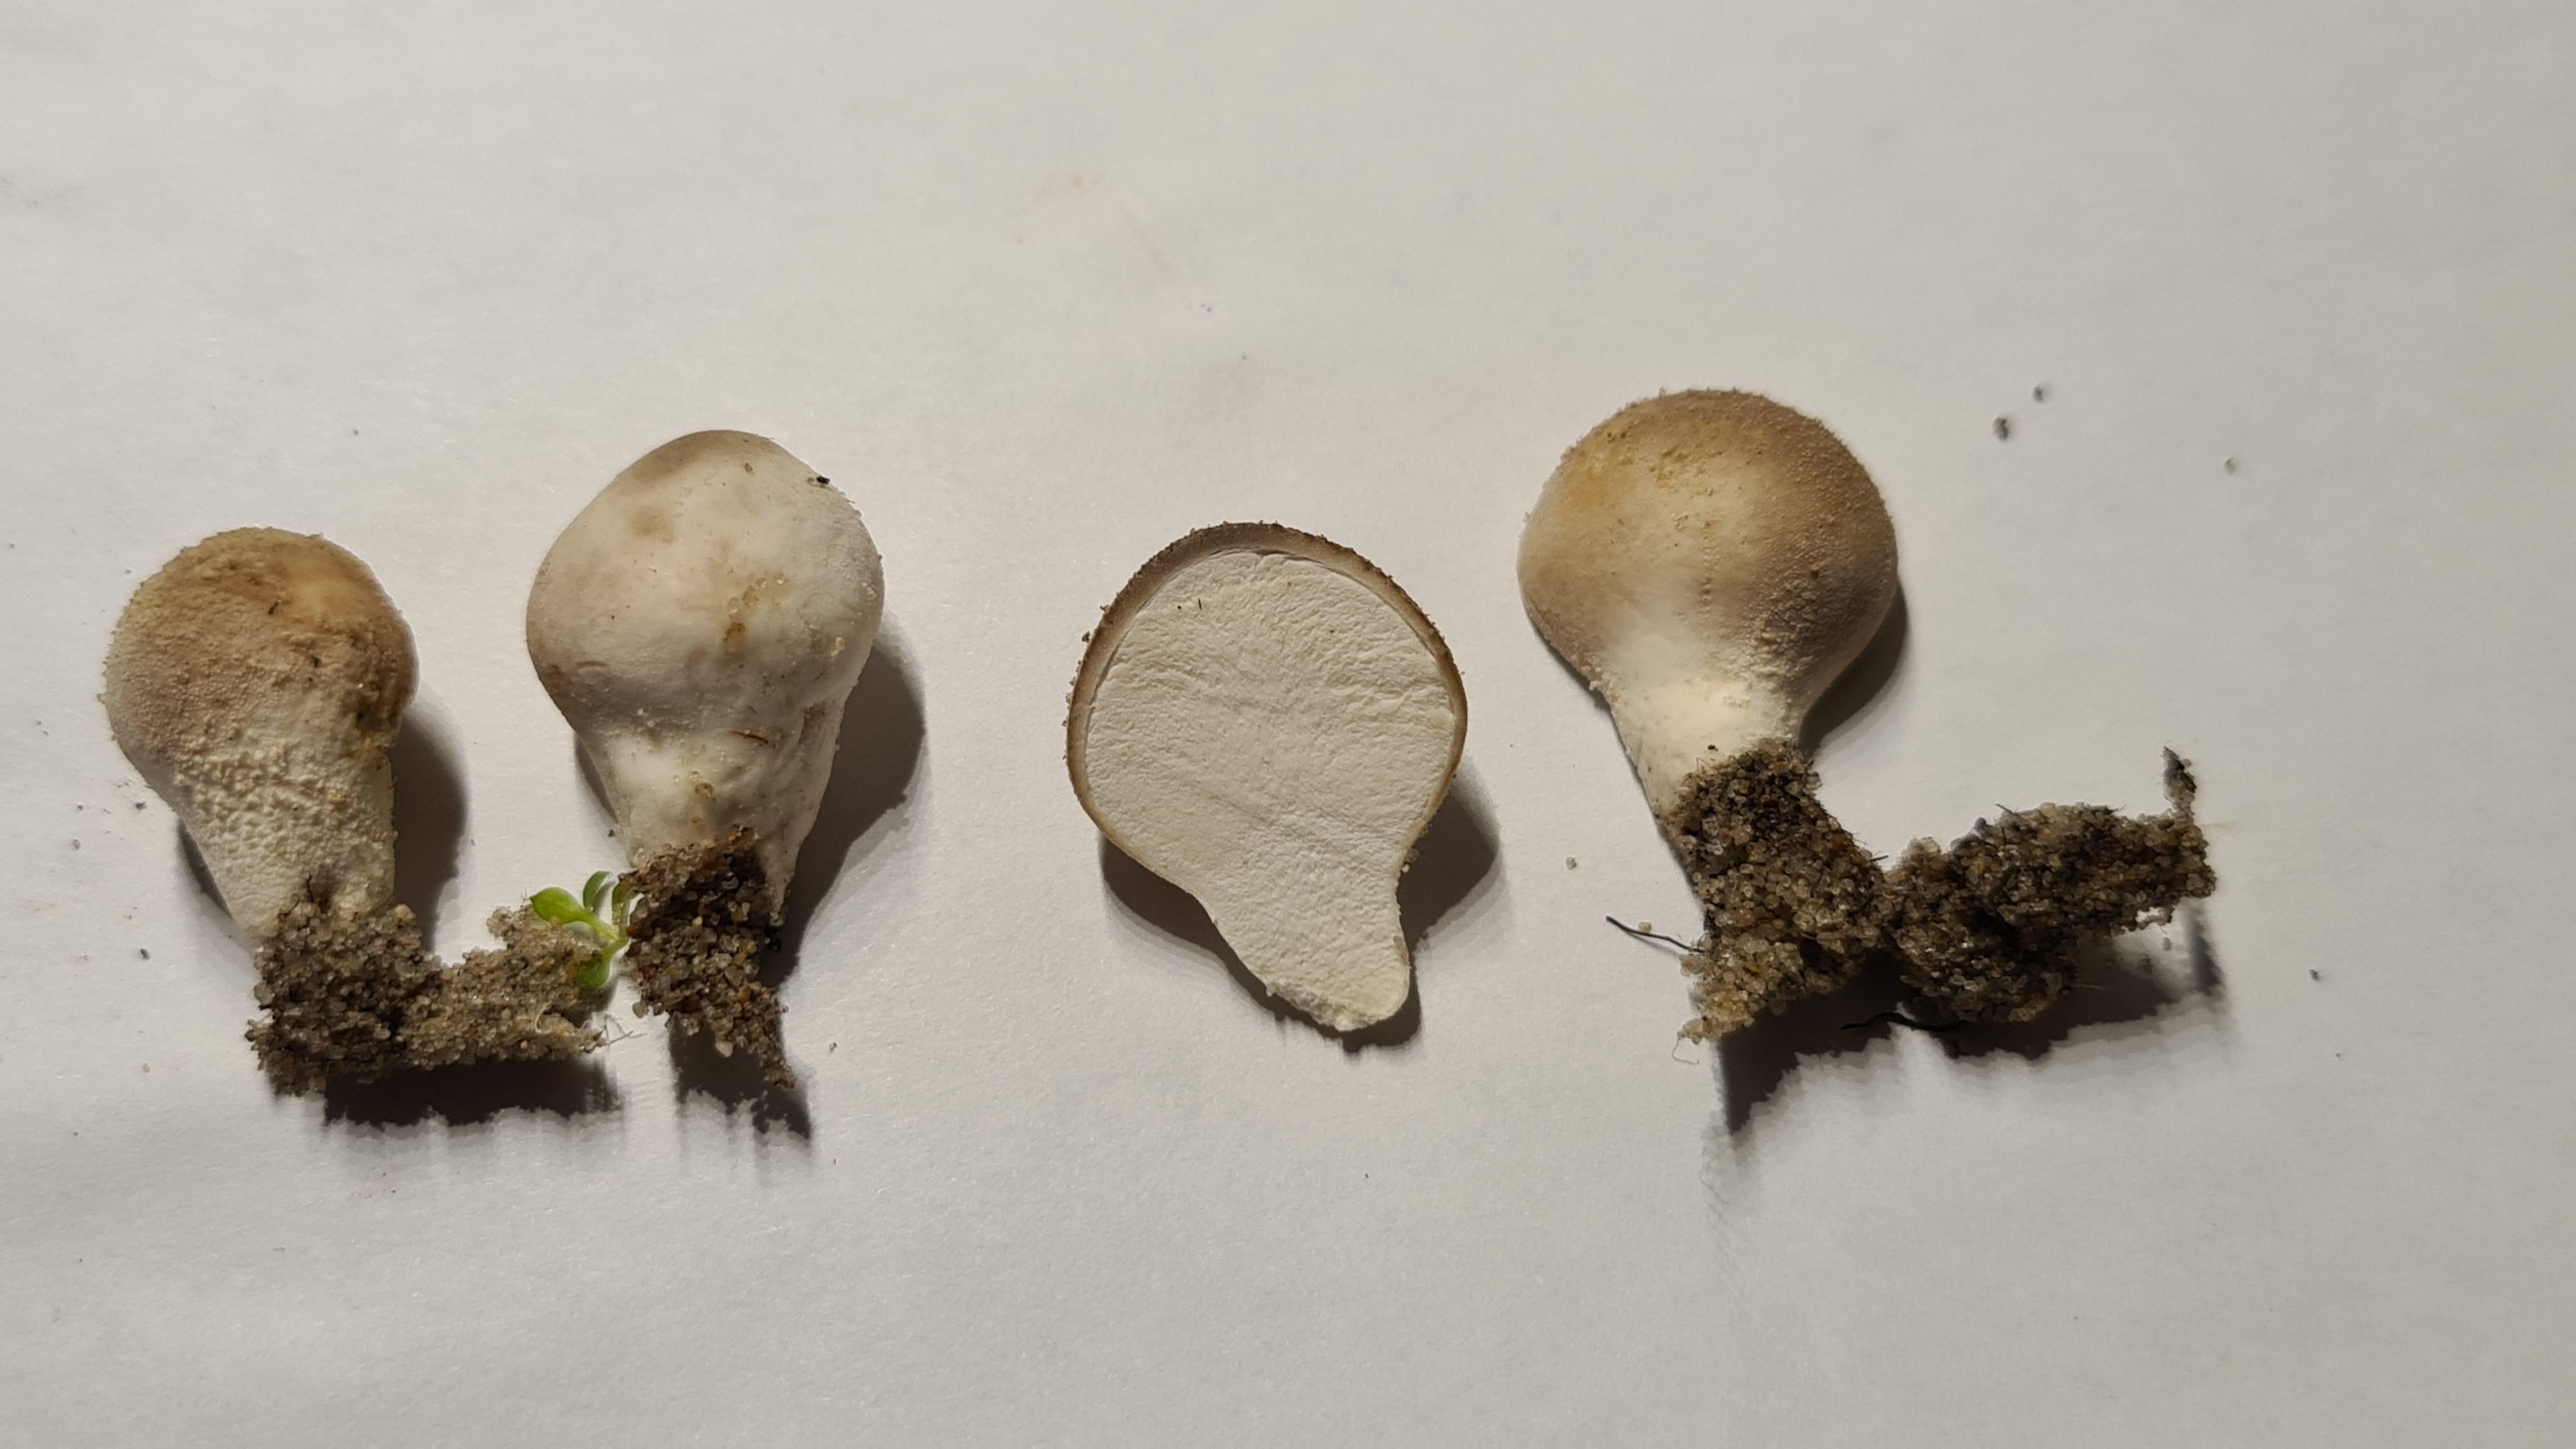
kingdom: Fungi
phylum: Basidiomycota
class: Agaricomycetes
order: Agaricales
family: Lycoperdaceae
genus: Lycoperdon
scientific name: Lycoperdon lividum
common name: mark-støvbold
